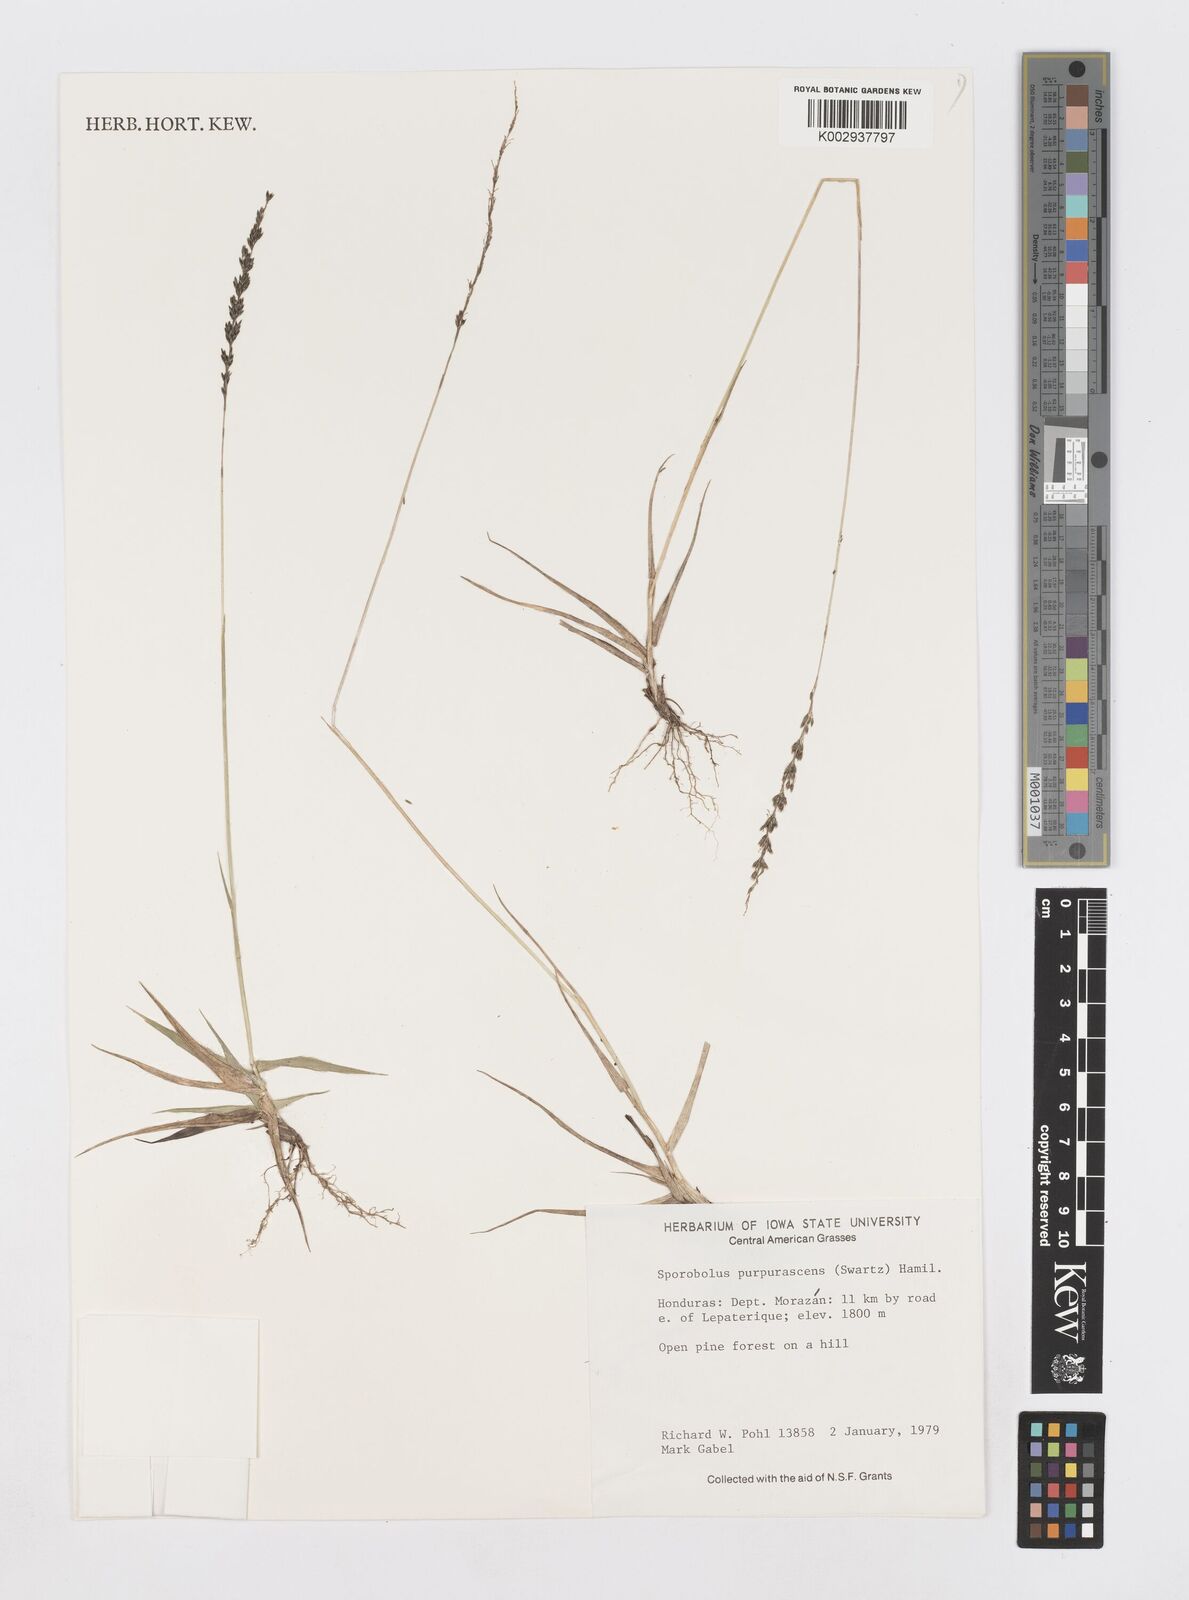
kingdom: Plantae
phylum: Tracheophyta
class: Liliopsida
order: Poales
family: Poaceae
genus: Sporobolus
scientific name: Sporobolus purpurascens
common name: Purple dropseed
